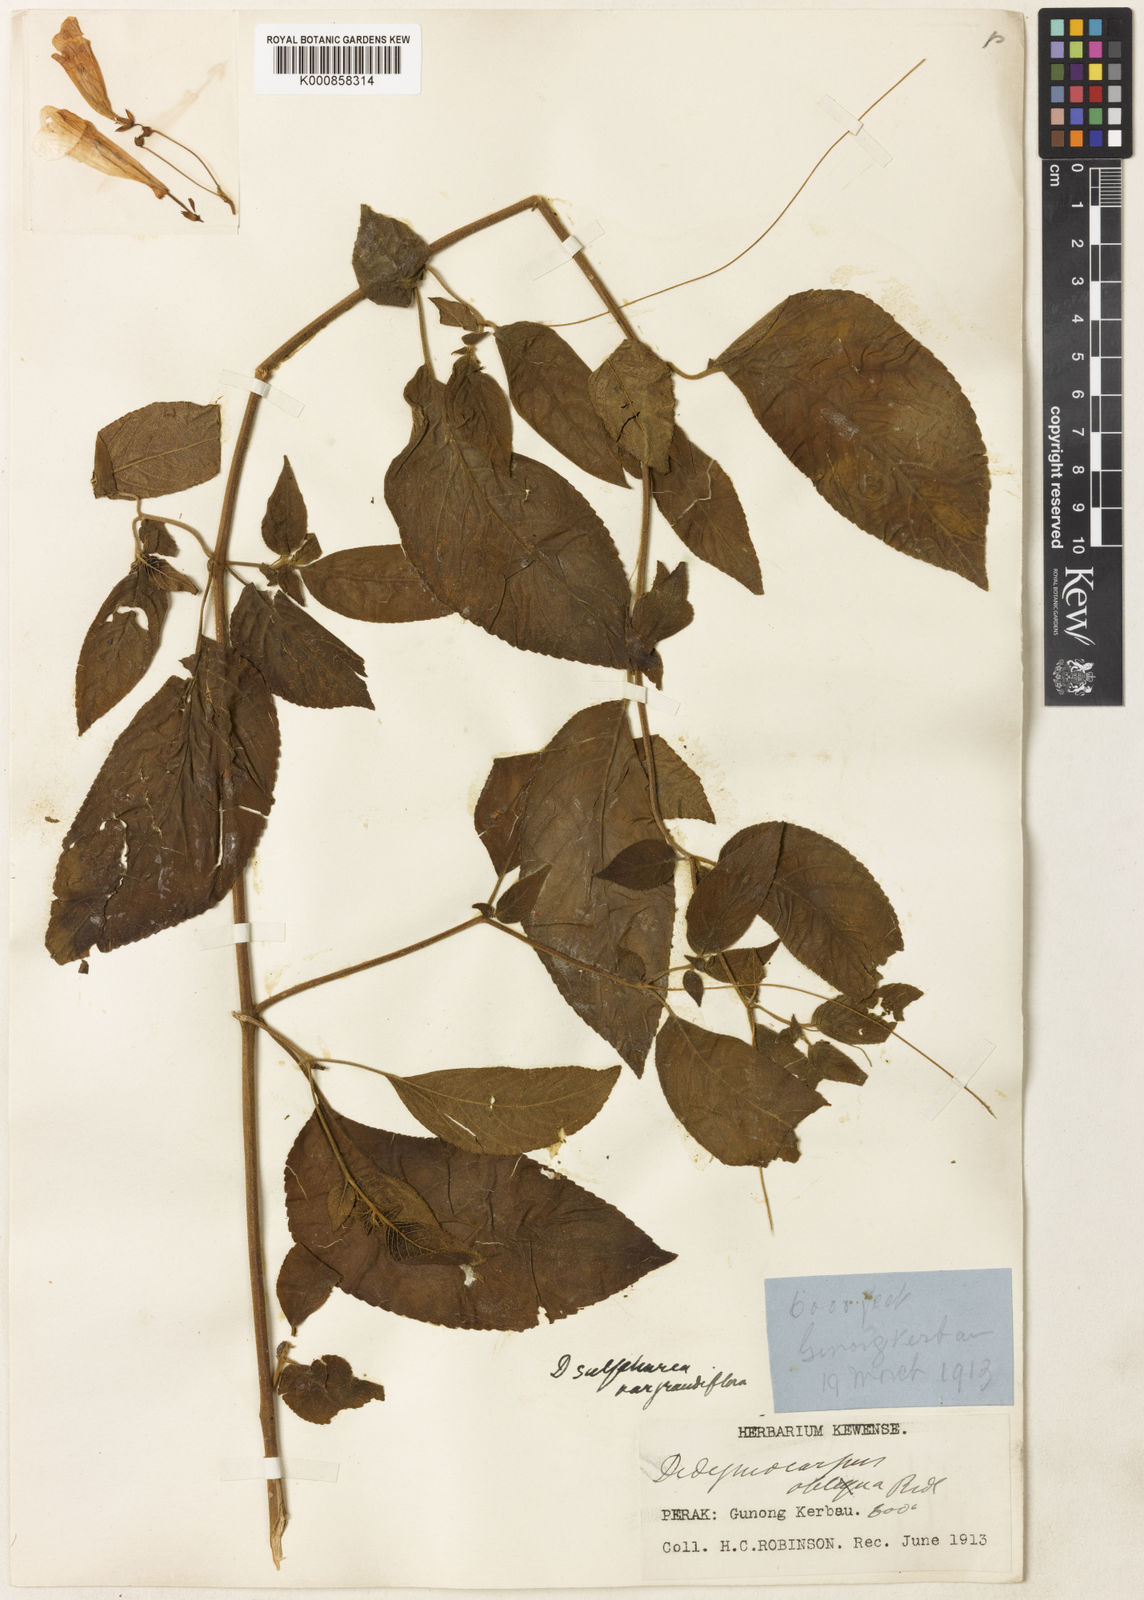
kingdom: Plantae
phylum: Tracheophyta
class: Magnoliopsida
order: Lamiales
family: Gesneriaceae
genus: Didymocarpus
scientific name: Didymocarpus sulphureus
